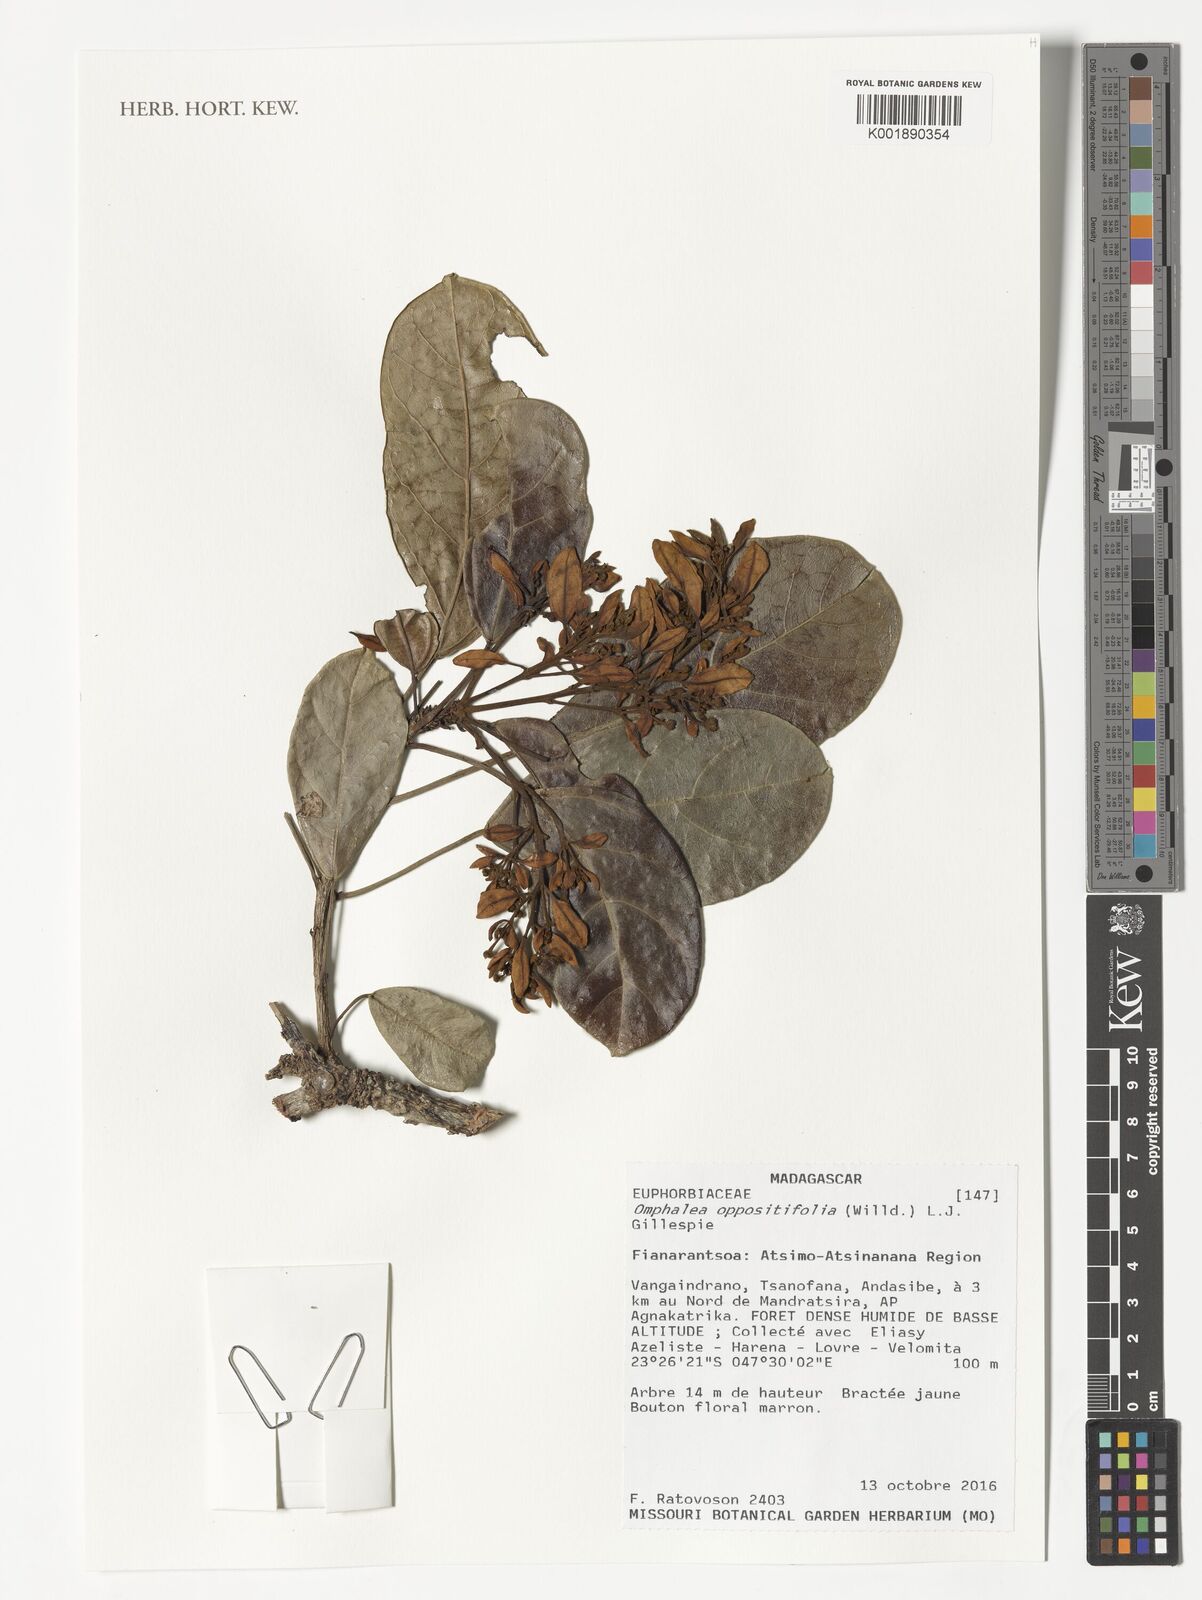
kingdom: Plantae
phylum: Tracheophyta
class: Magnoliopsida
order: Malpighiales
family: Euphorbiaceae
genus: Omphalea
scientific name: Omphalea oppositifolia
